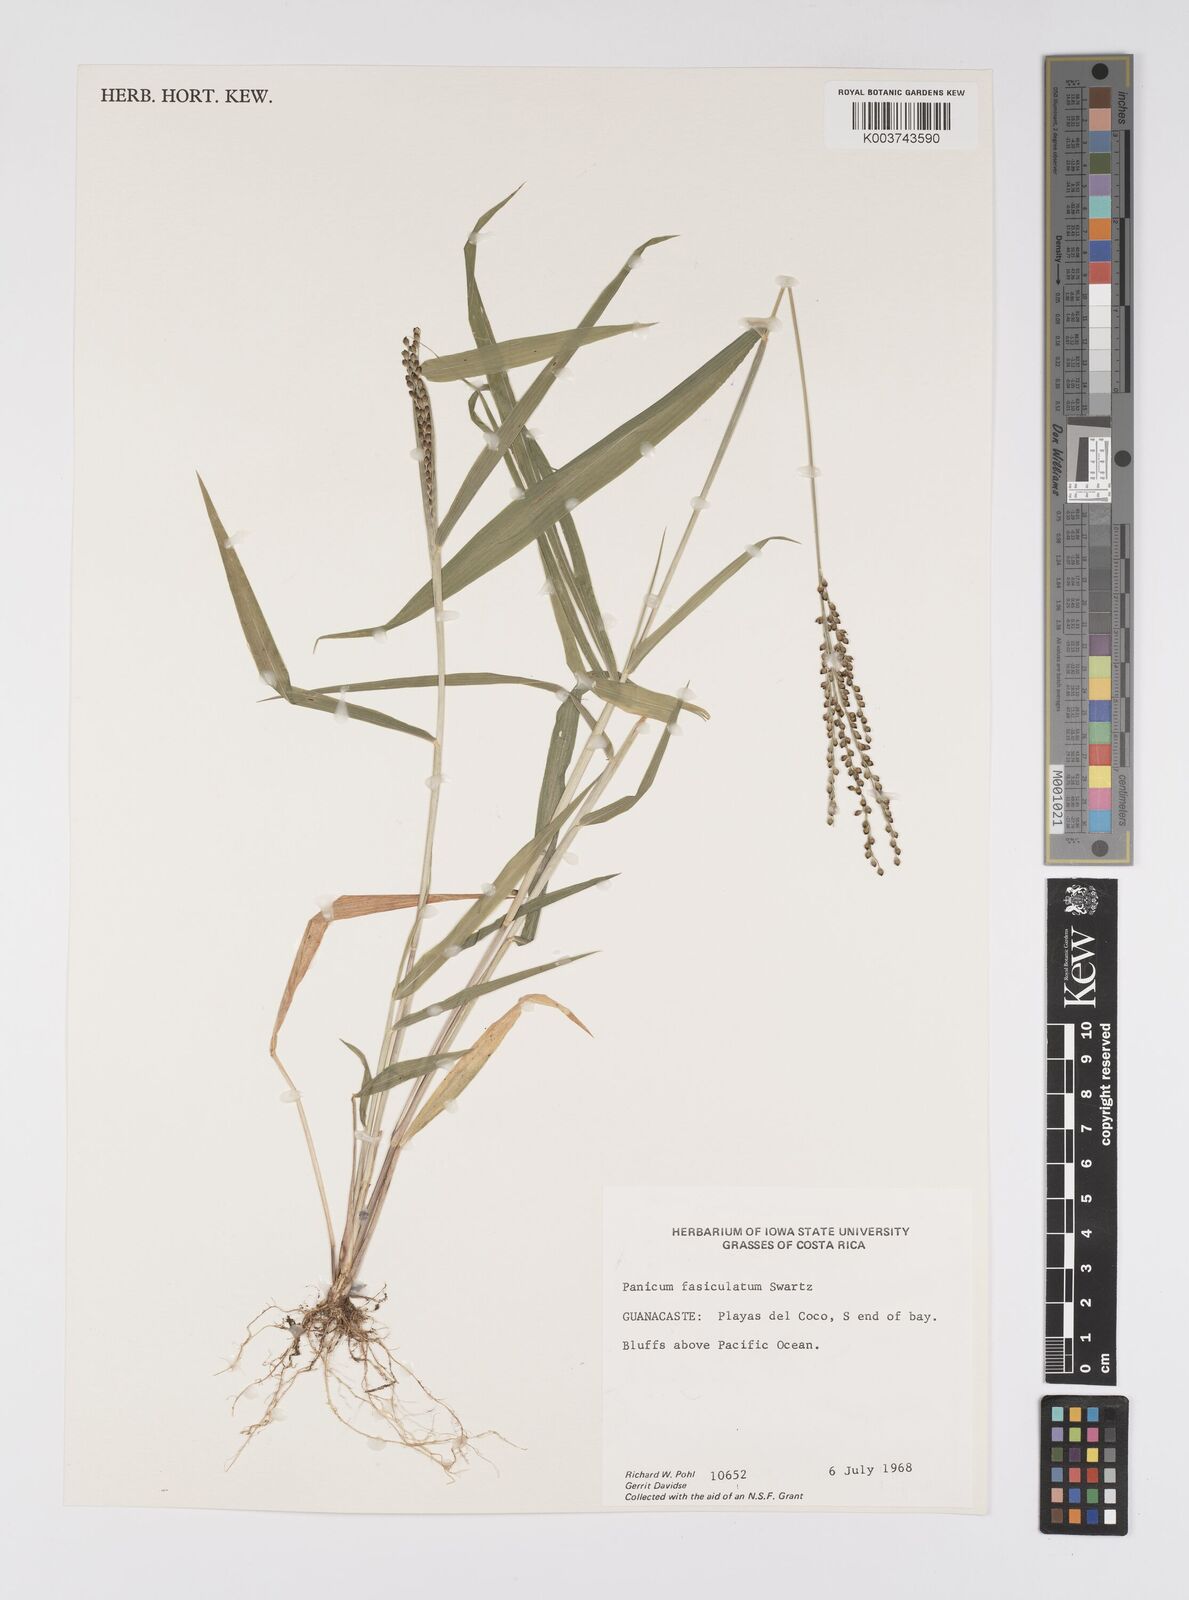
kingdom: Plantae
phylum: Tracheophyta
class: Liliopsida
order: Poales
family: Poaceae
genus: Urochloa
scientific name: Urochloa fusca
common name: Browntop signal grass
